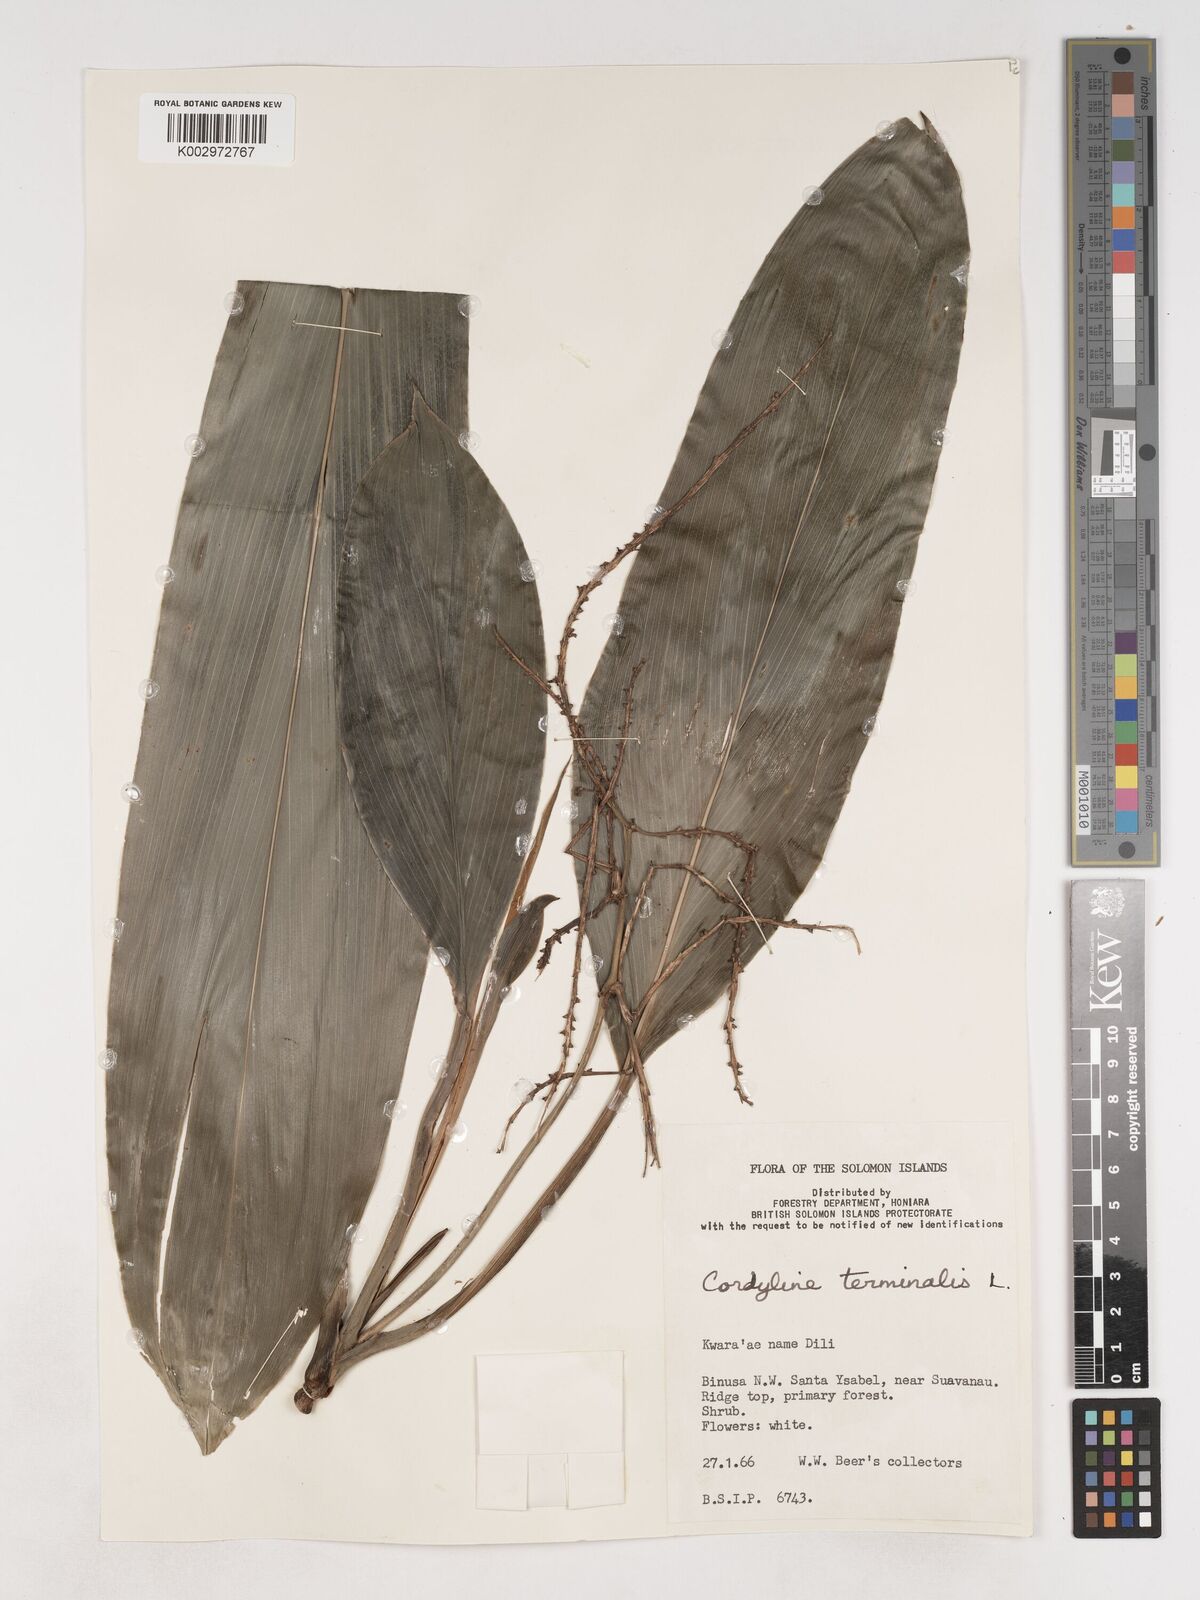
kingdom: Plantae
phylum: Tracheophyta
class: Liliopsida
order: Asparagales
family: Asparagaceae
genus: Cordyline
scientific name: Cordyline fruticosa
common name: Good-luck-plant
